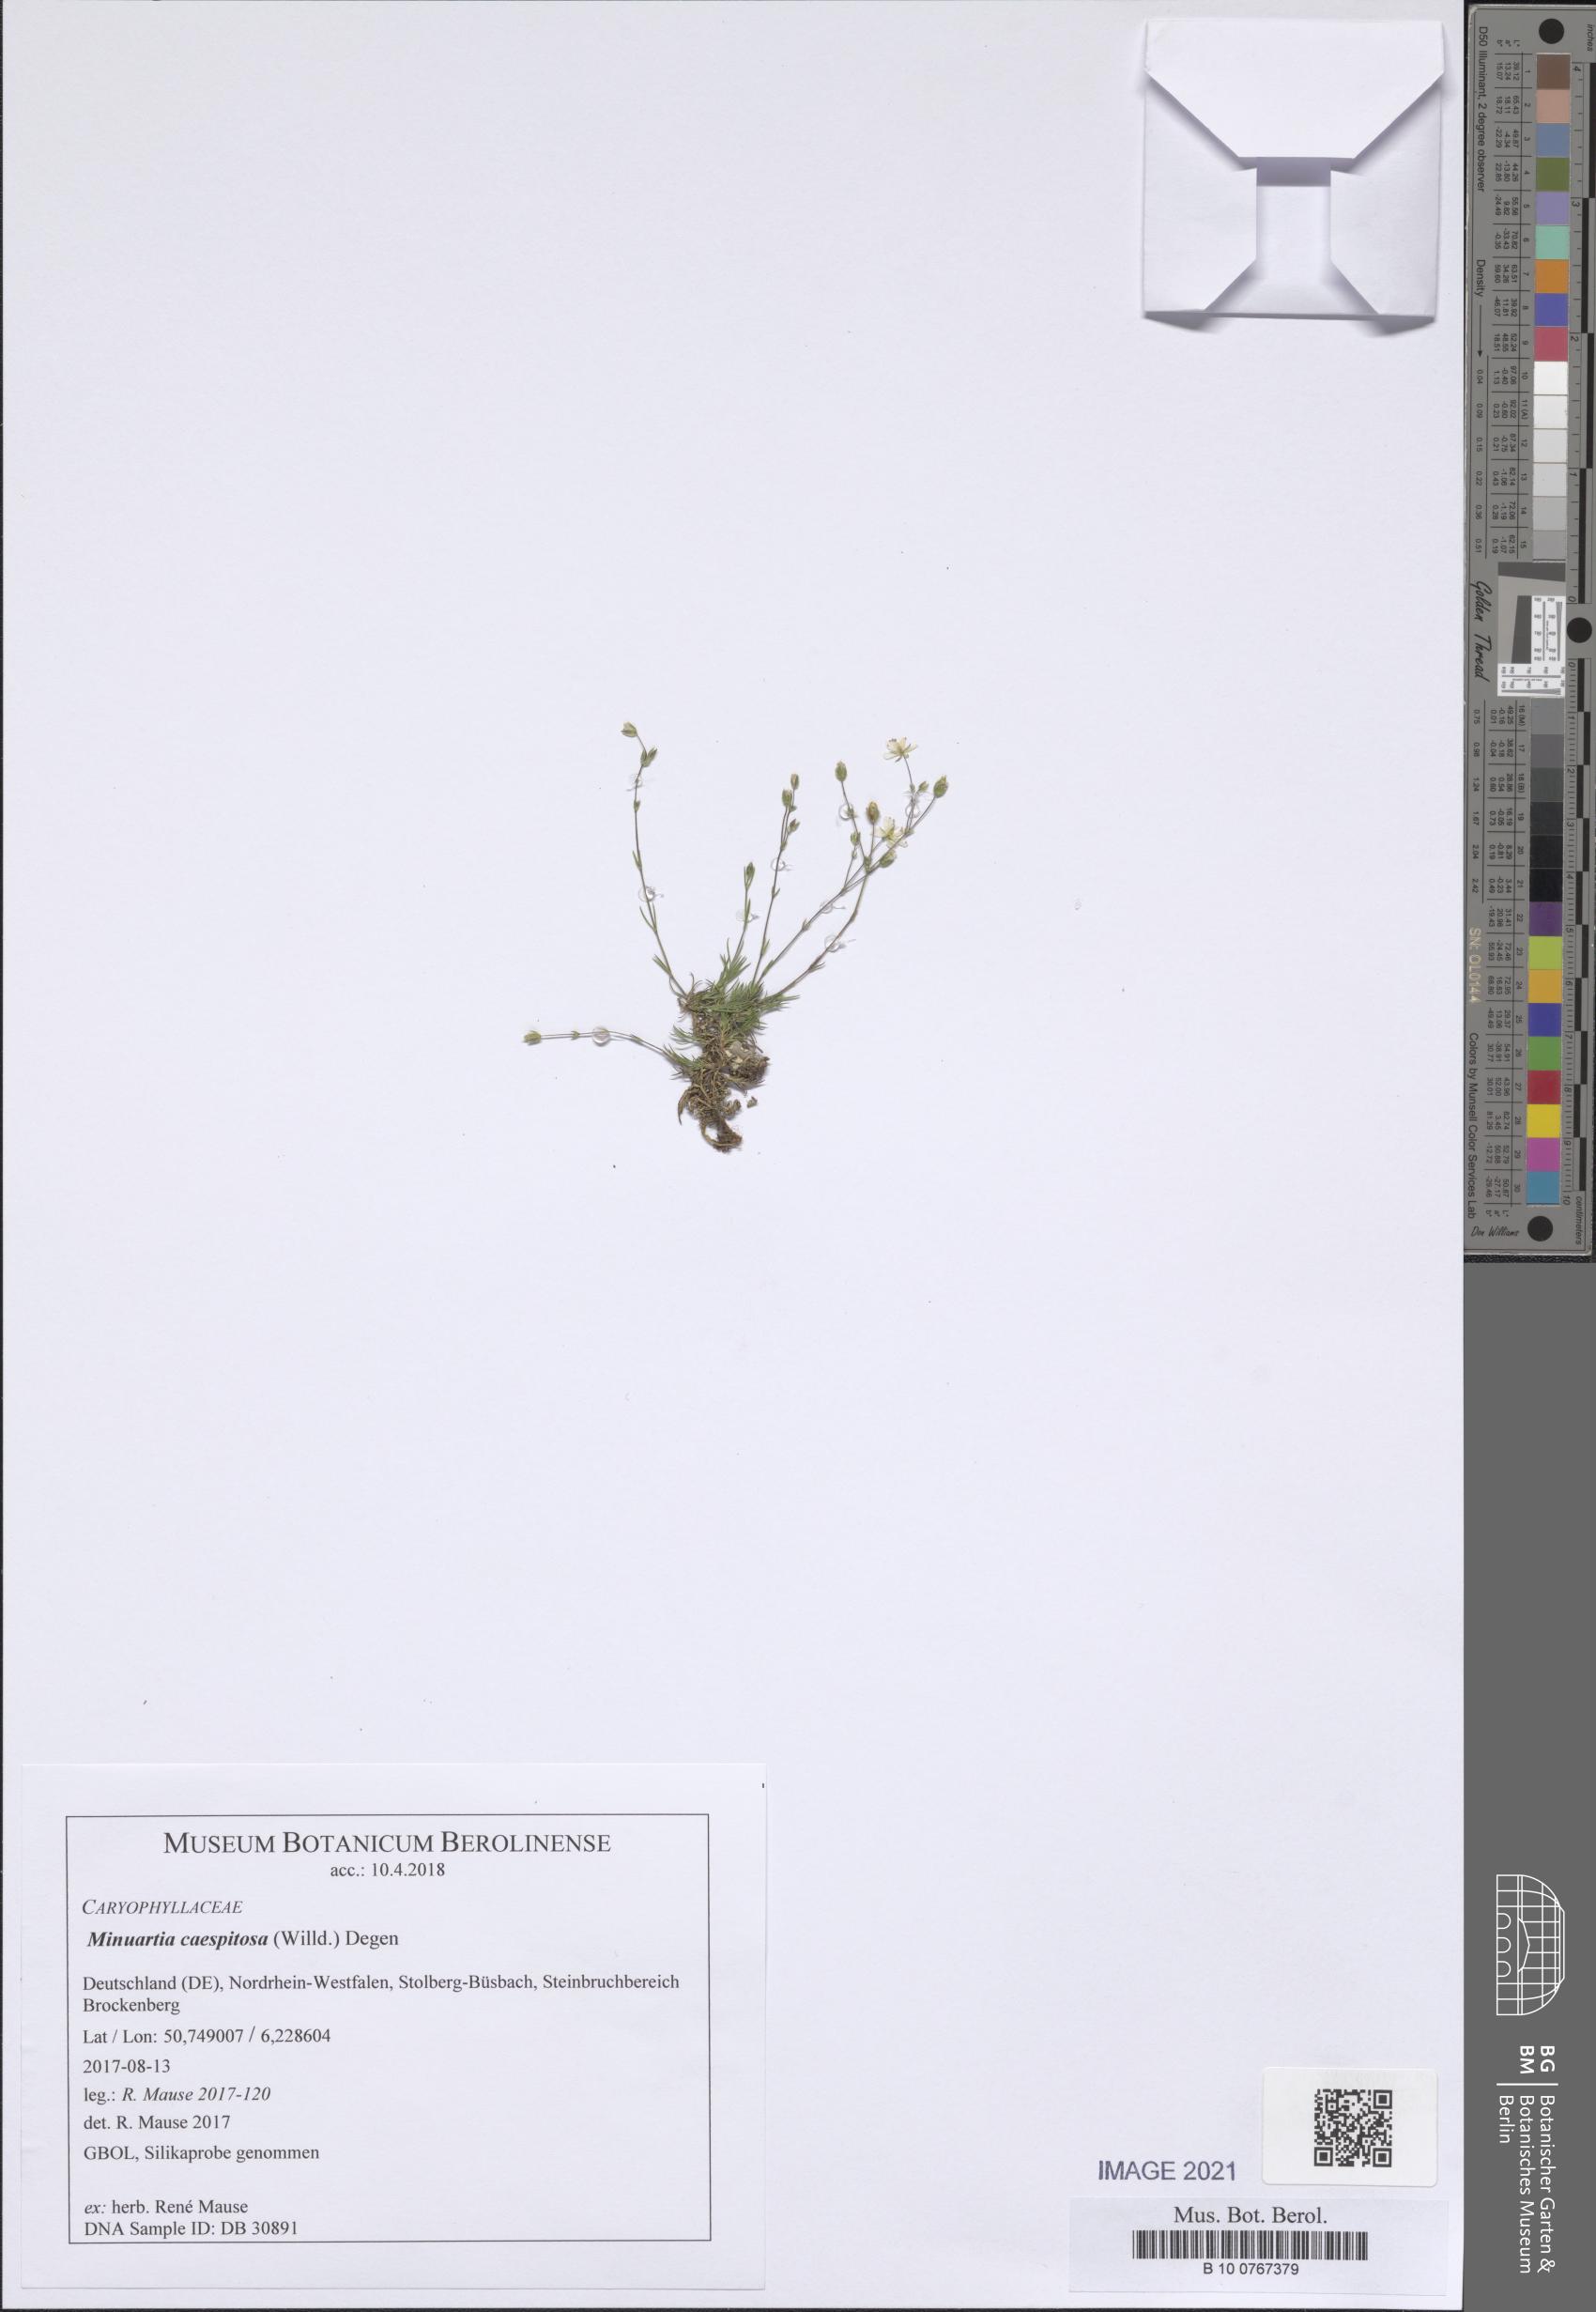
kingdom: Plantae
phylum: Tracheophyta
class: Magnoliopsida
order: Caryophyllales
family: Caryophyllaceae
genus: Sabulina
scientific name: Sabulina caespitosa
